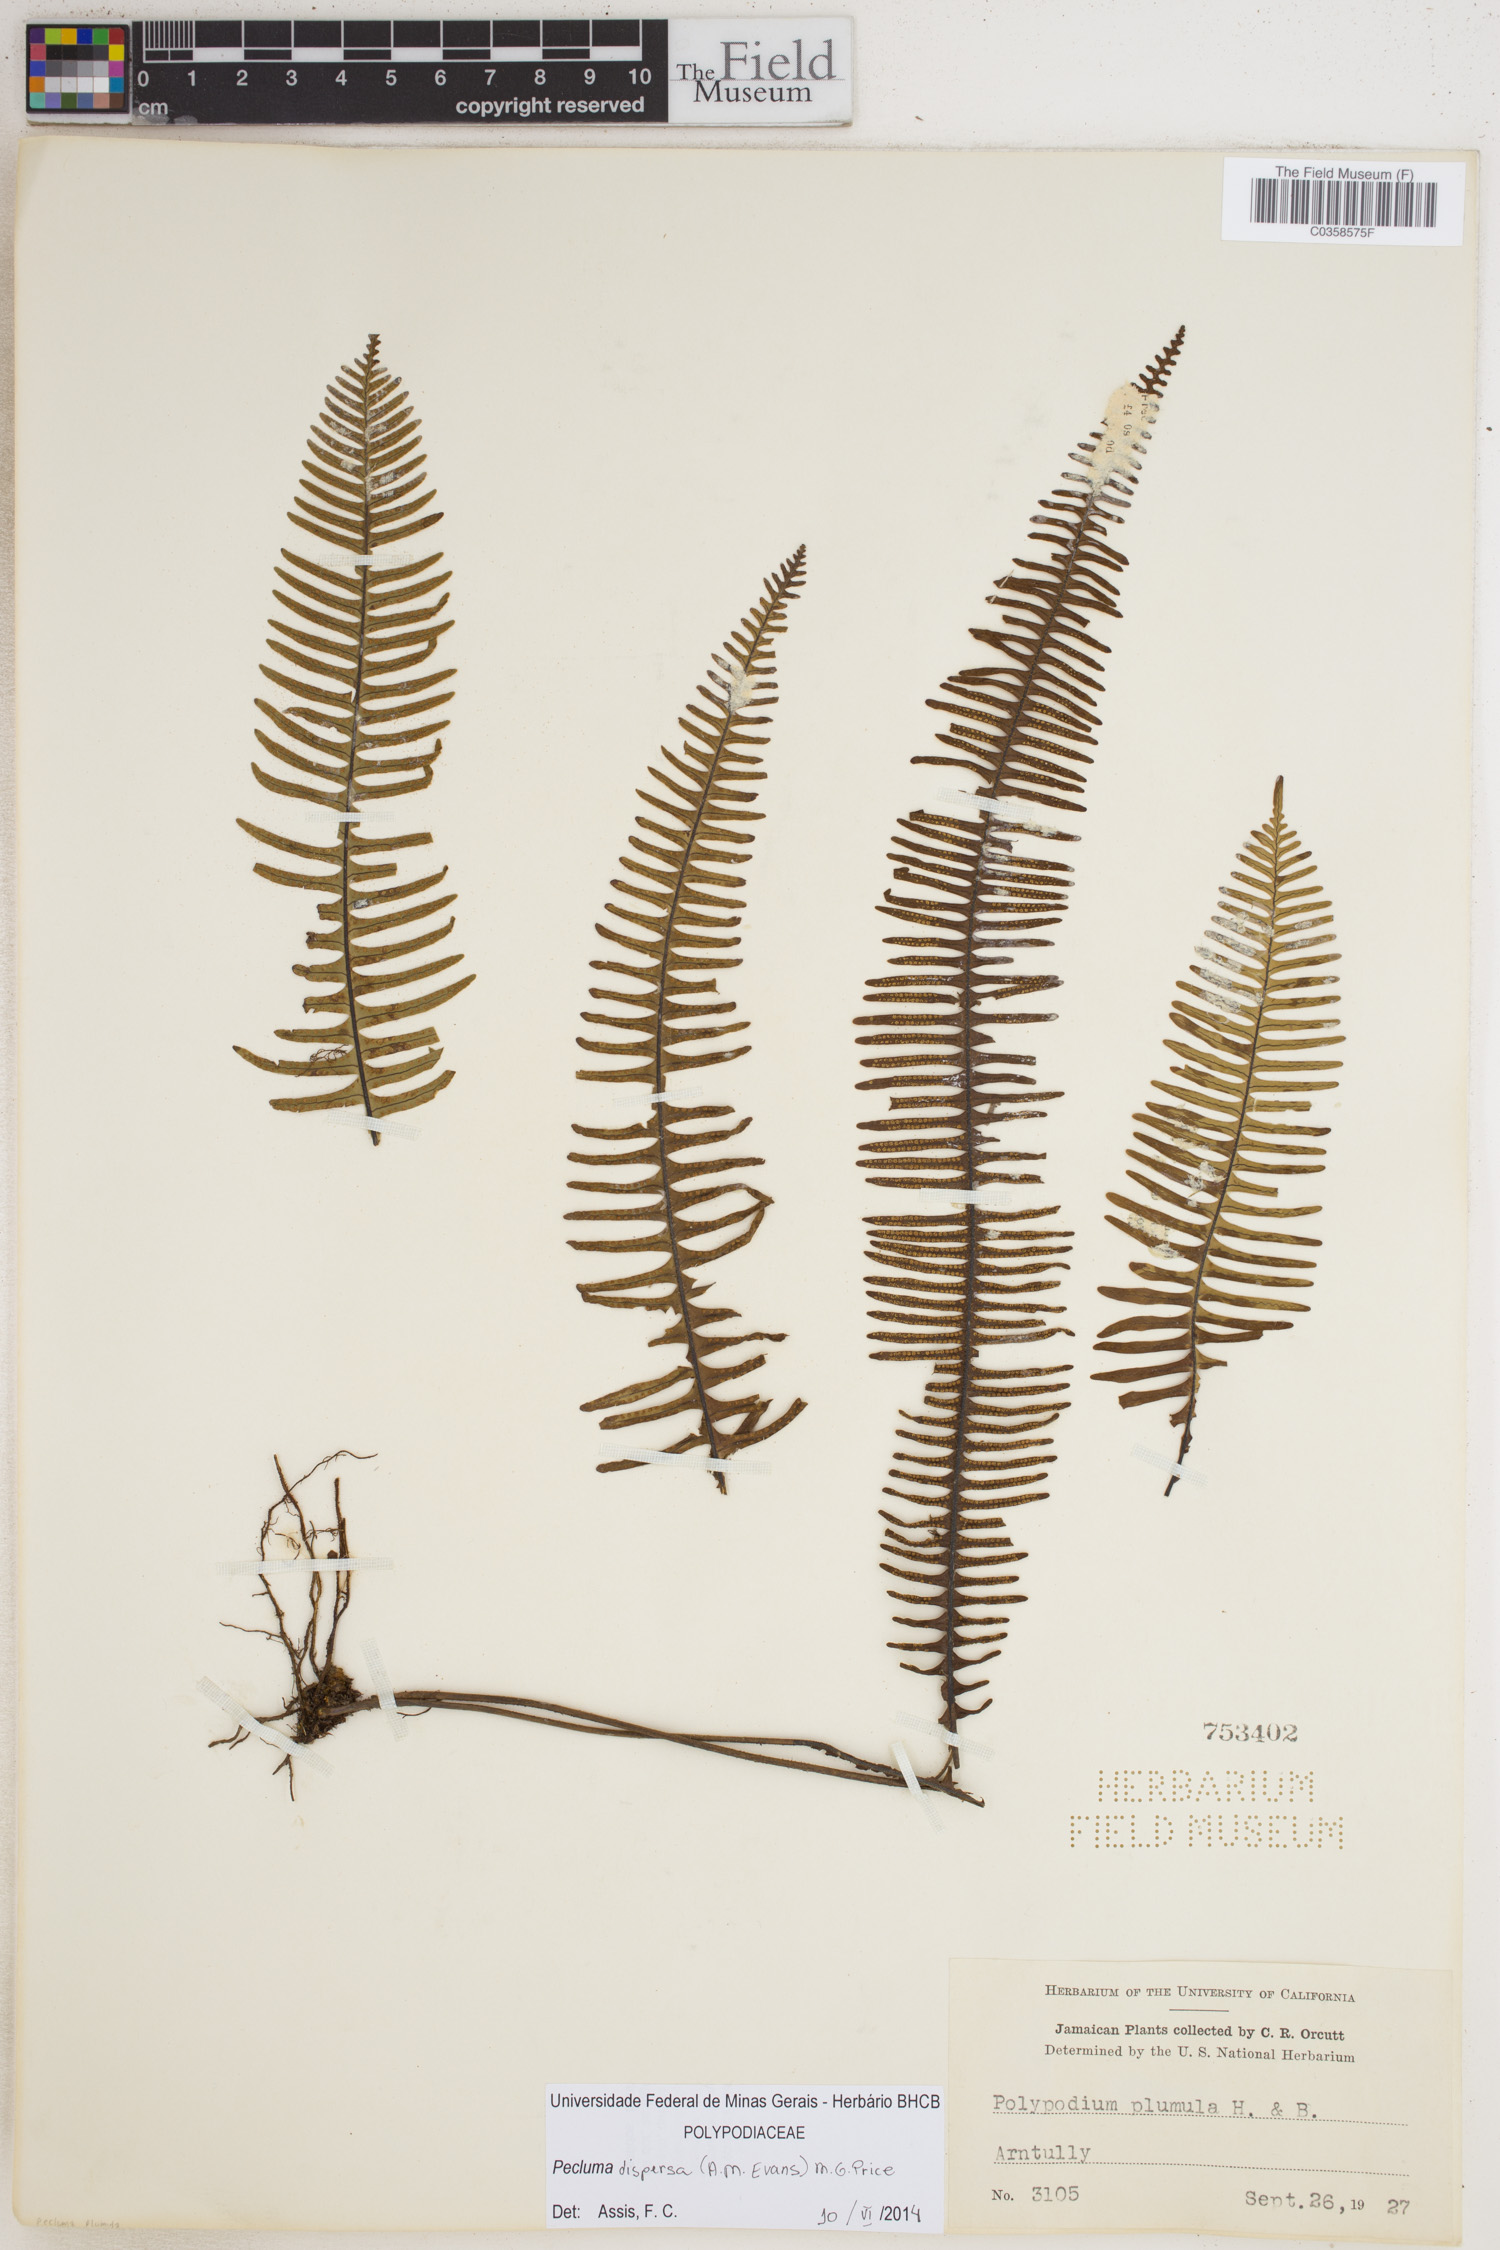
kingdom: Plantae
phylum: Tracheophyta
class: Polypodiopsida
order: Polypodiales
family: Polypodiaceae
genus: Pecluma
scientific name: Pecluma dispersa
